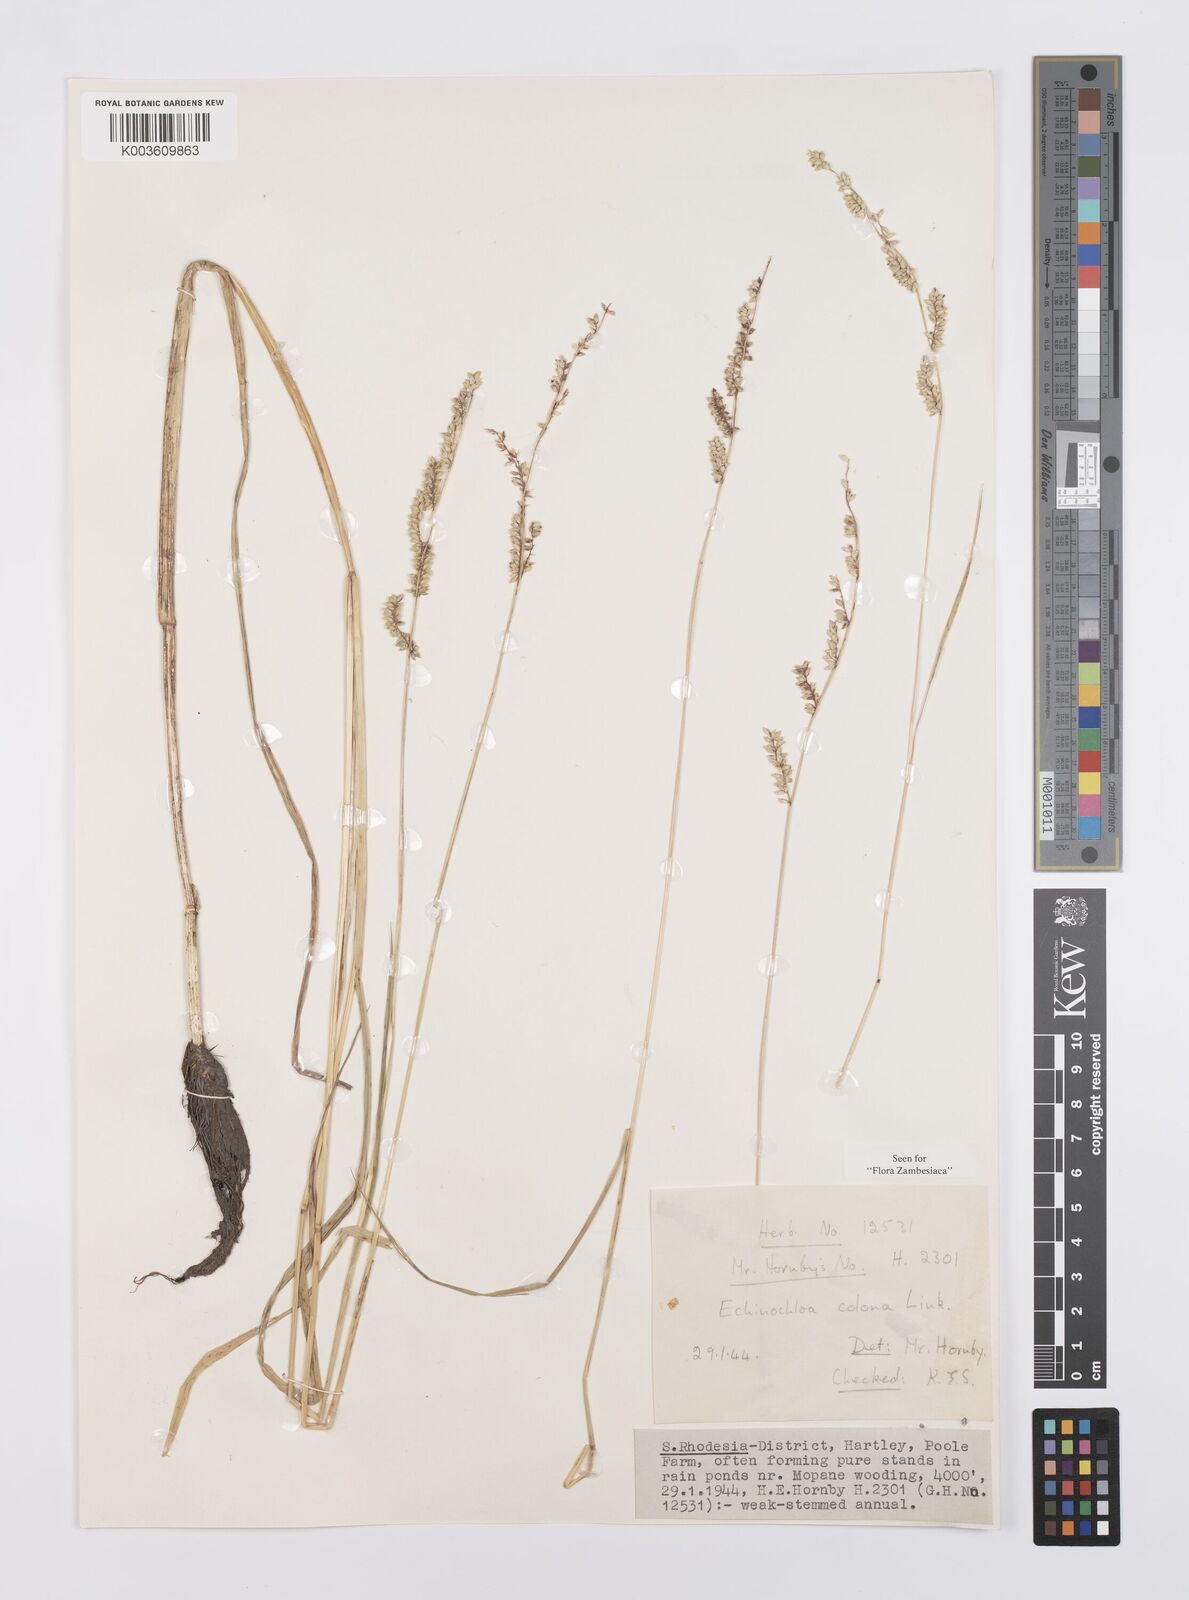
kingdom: Plantae
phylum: Tracheophyta
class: Liliopsida
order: Poales
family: Poaceae
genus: Echinochloa
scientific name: Echinochloa colonum
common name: Jungle rice
